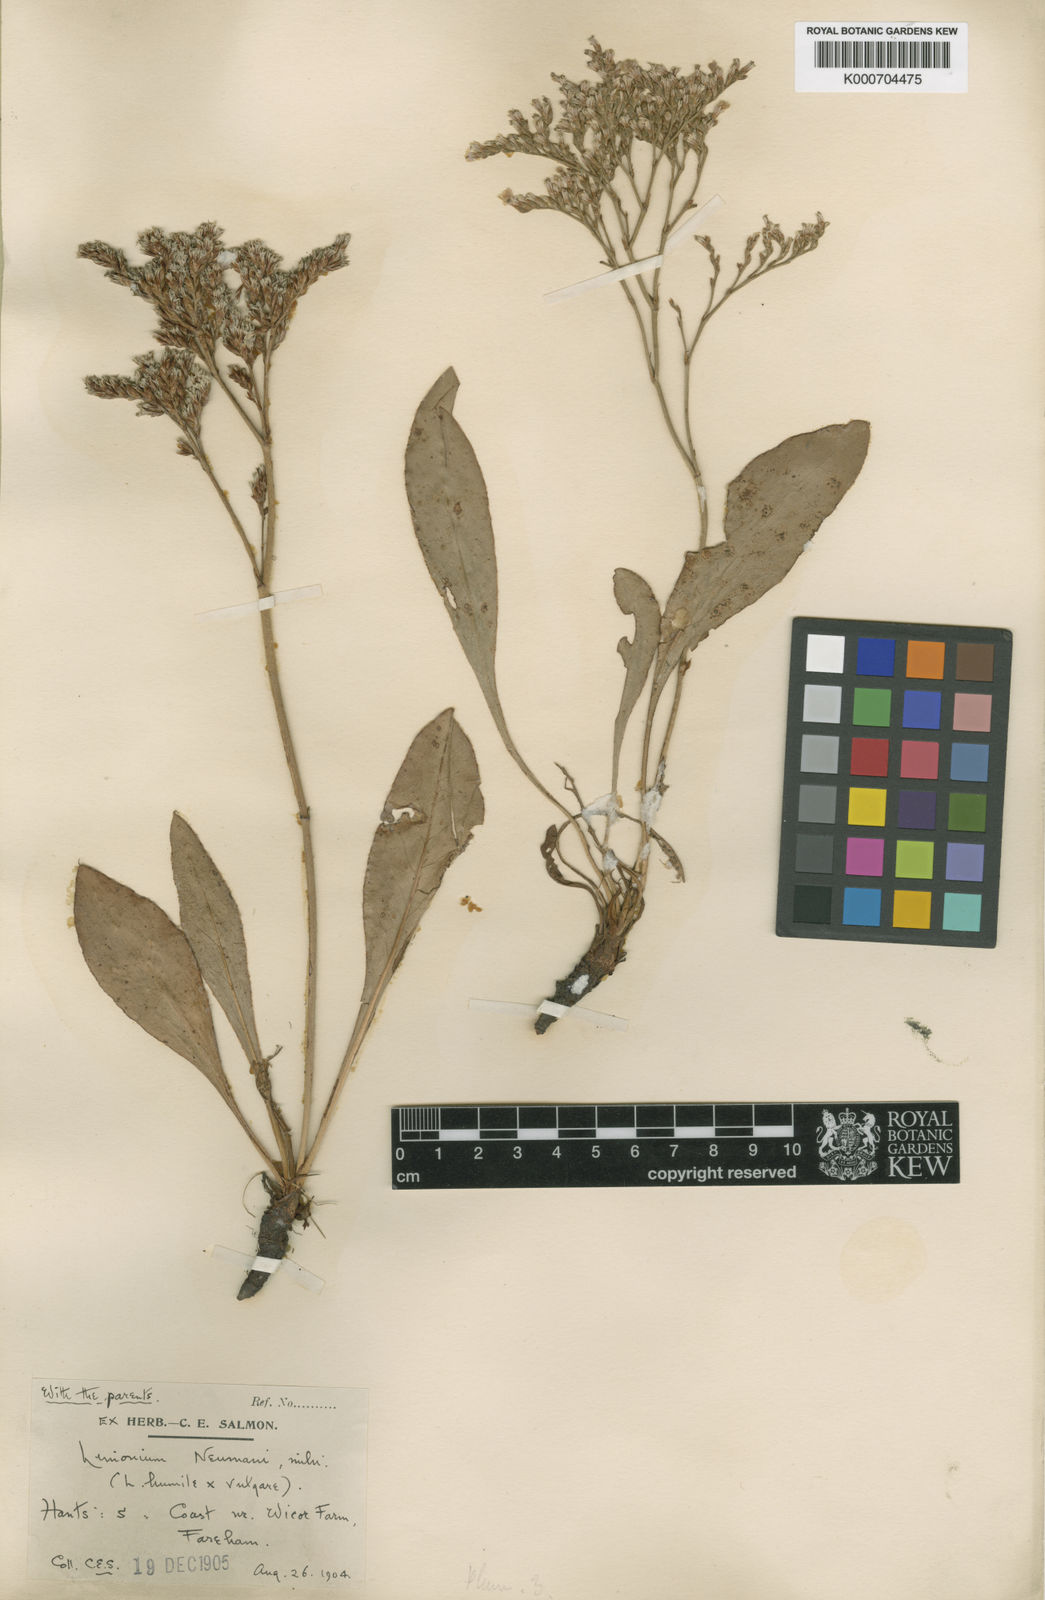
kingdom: Plantae
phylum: Tracheophyta
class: Magnoliopsida
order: Caryophyllales
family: Plumbaginaceae
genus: Limonium
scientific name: Limonium vulgare
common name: Common sea-lavender
